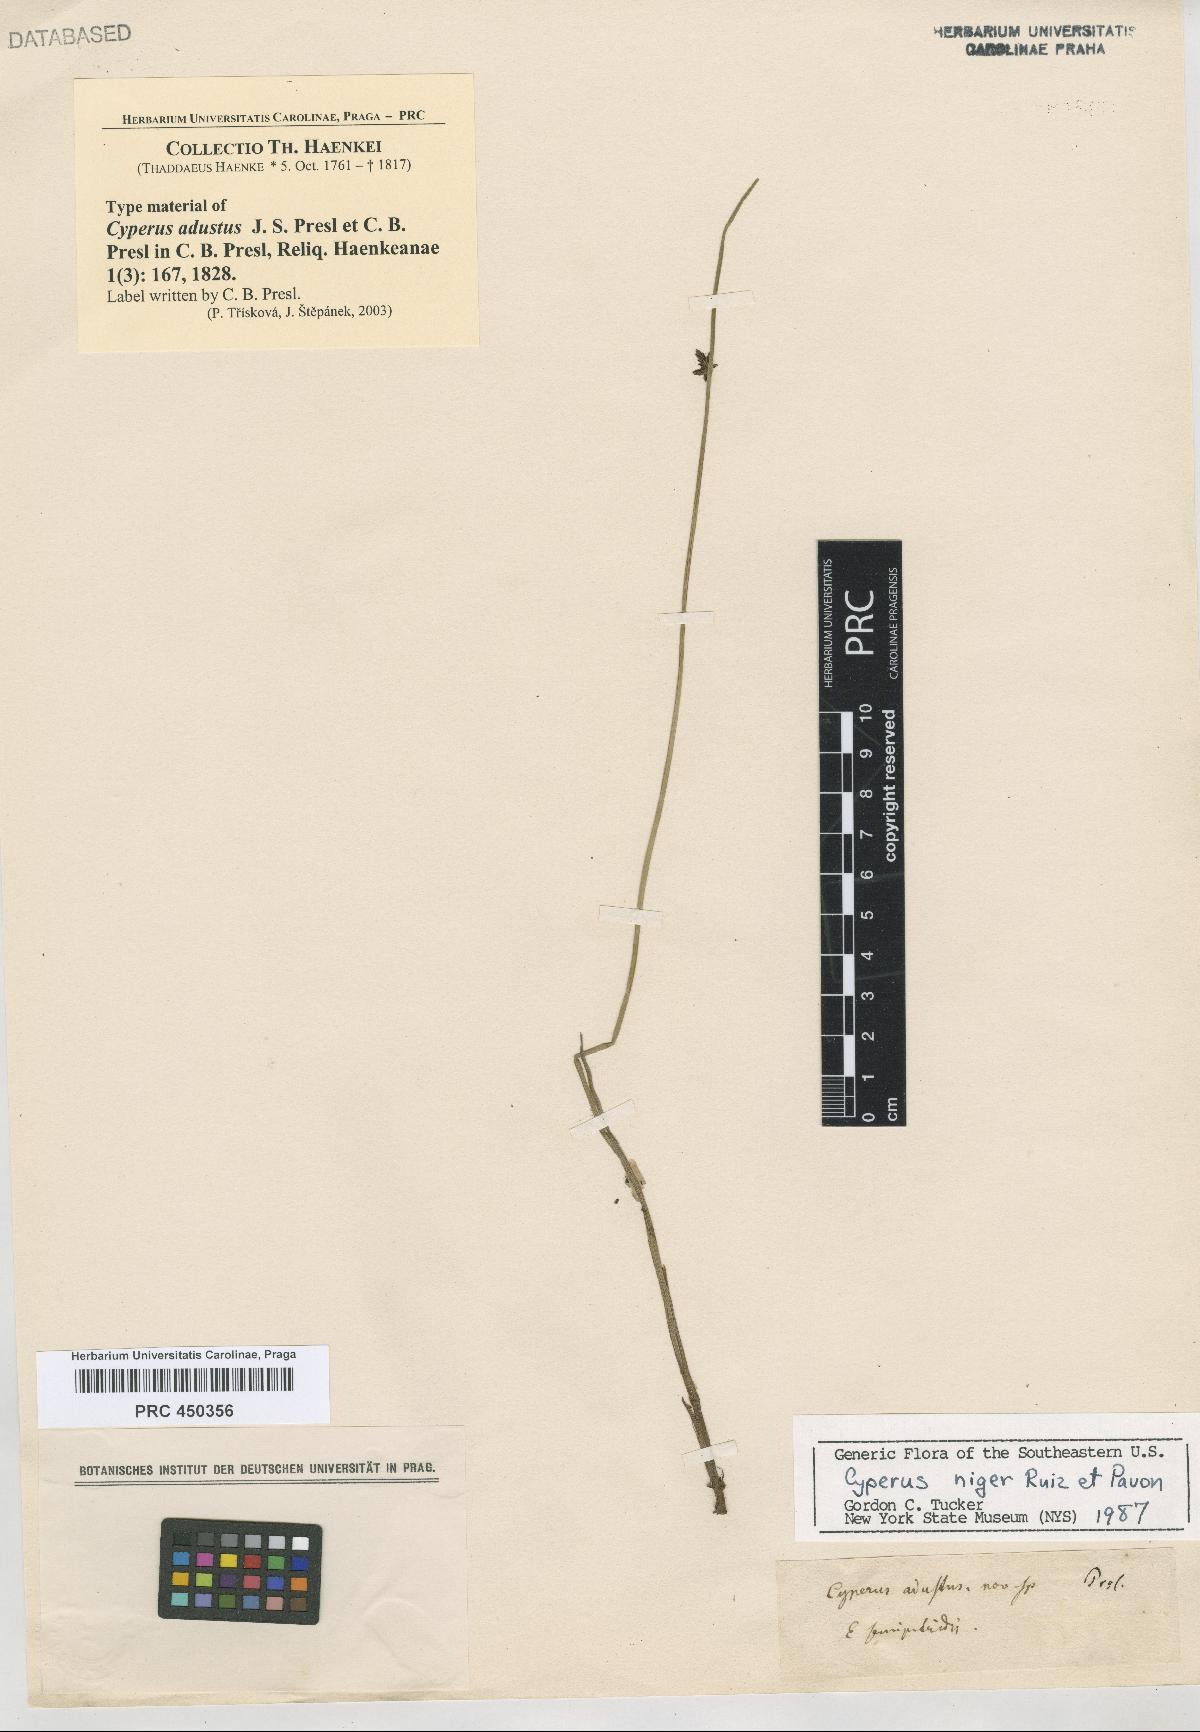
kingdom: Plantae
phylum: Tracheophyta
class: Liliopsida
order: Poales
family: Cyperaceae
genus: Cyperus
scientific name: Cyperus melanostachyus
